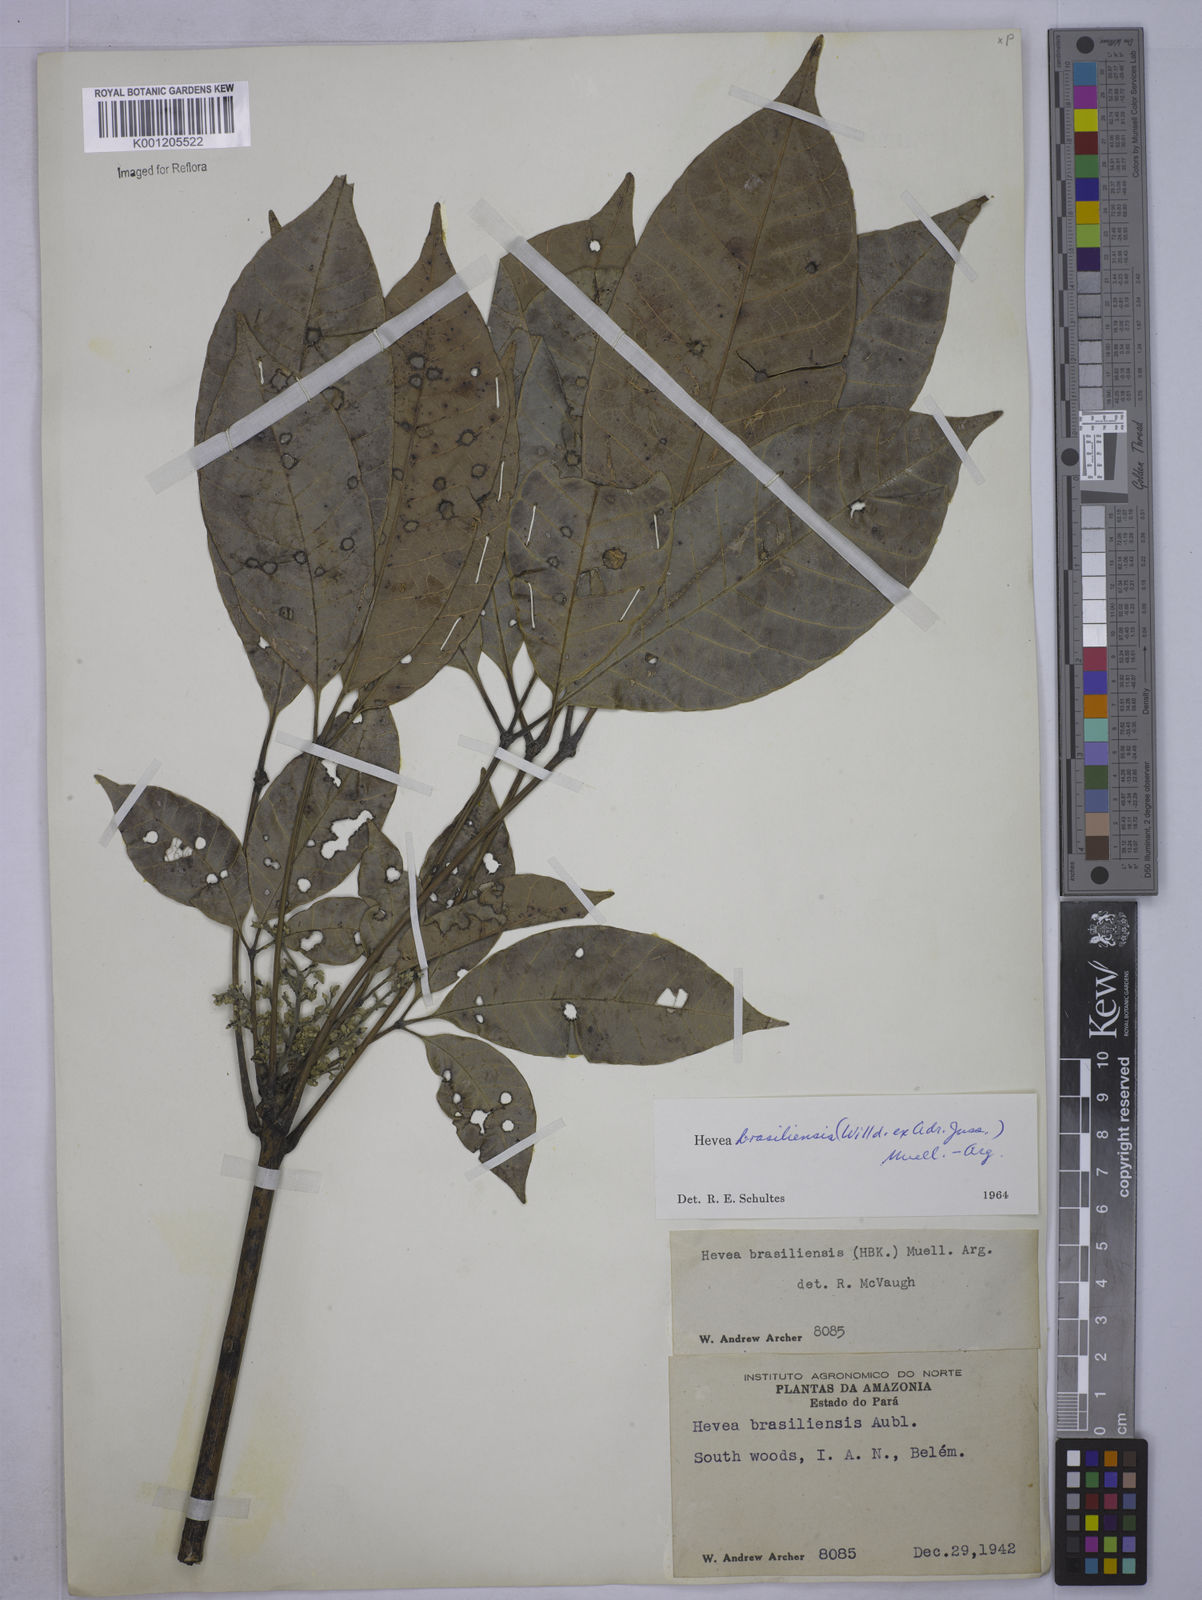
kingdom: Plantae
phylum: Tracheophyta
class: Magnoliopsida
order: Malpighiales
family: Euphorbiaceae
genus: Hevea
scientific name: Hevea
